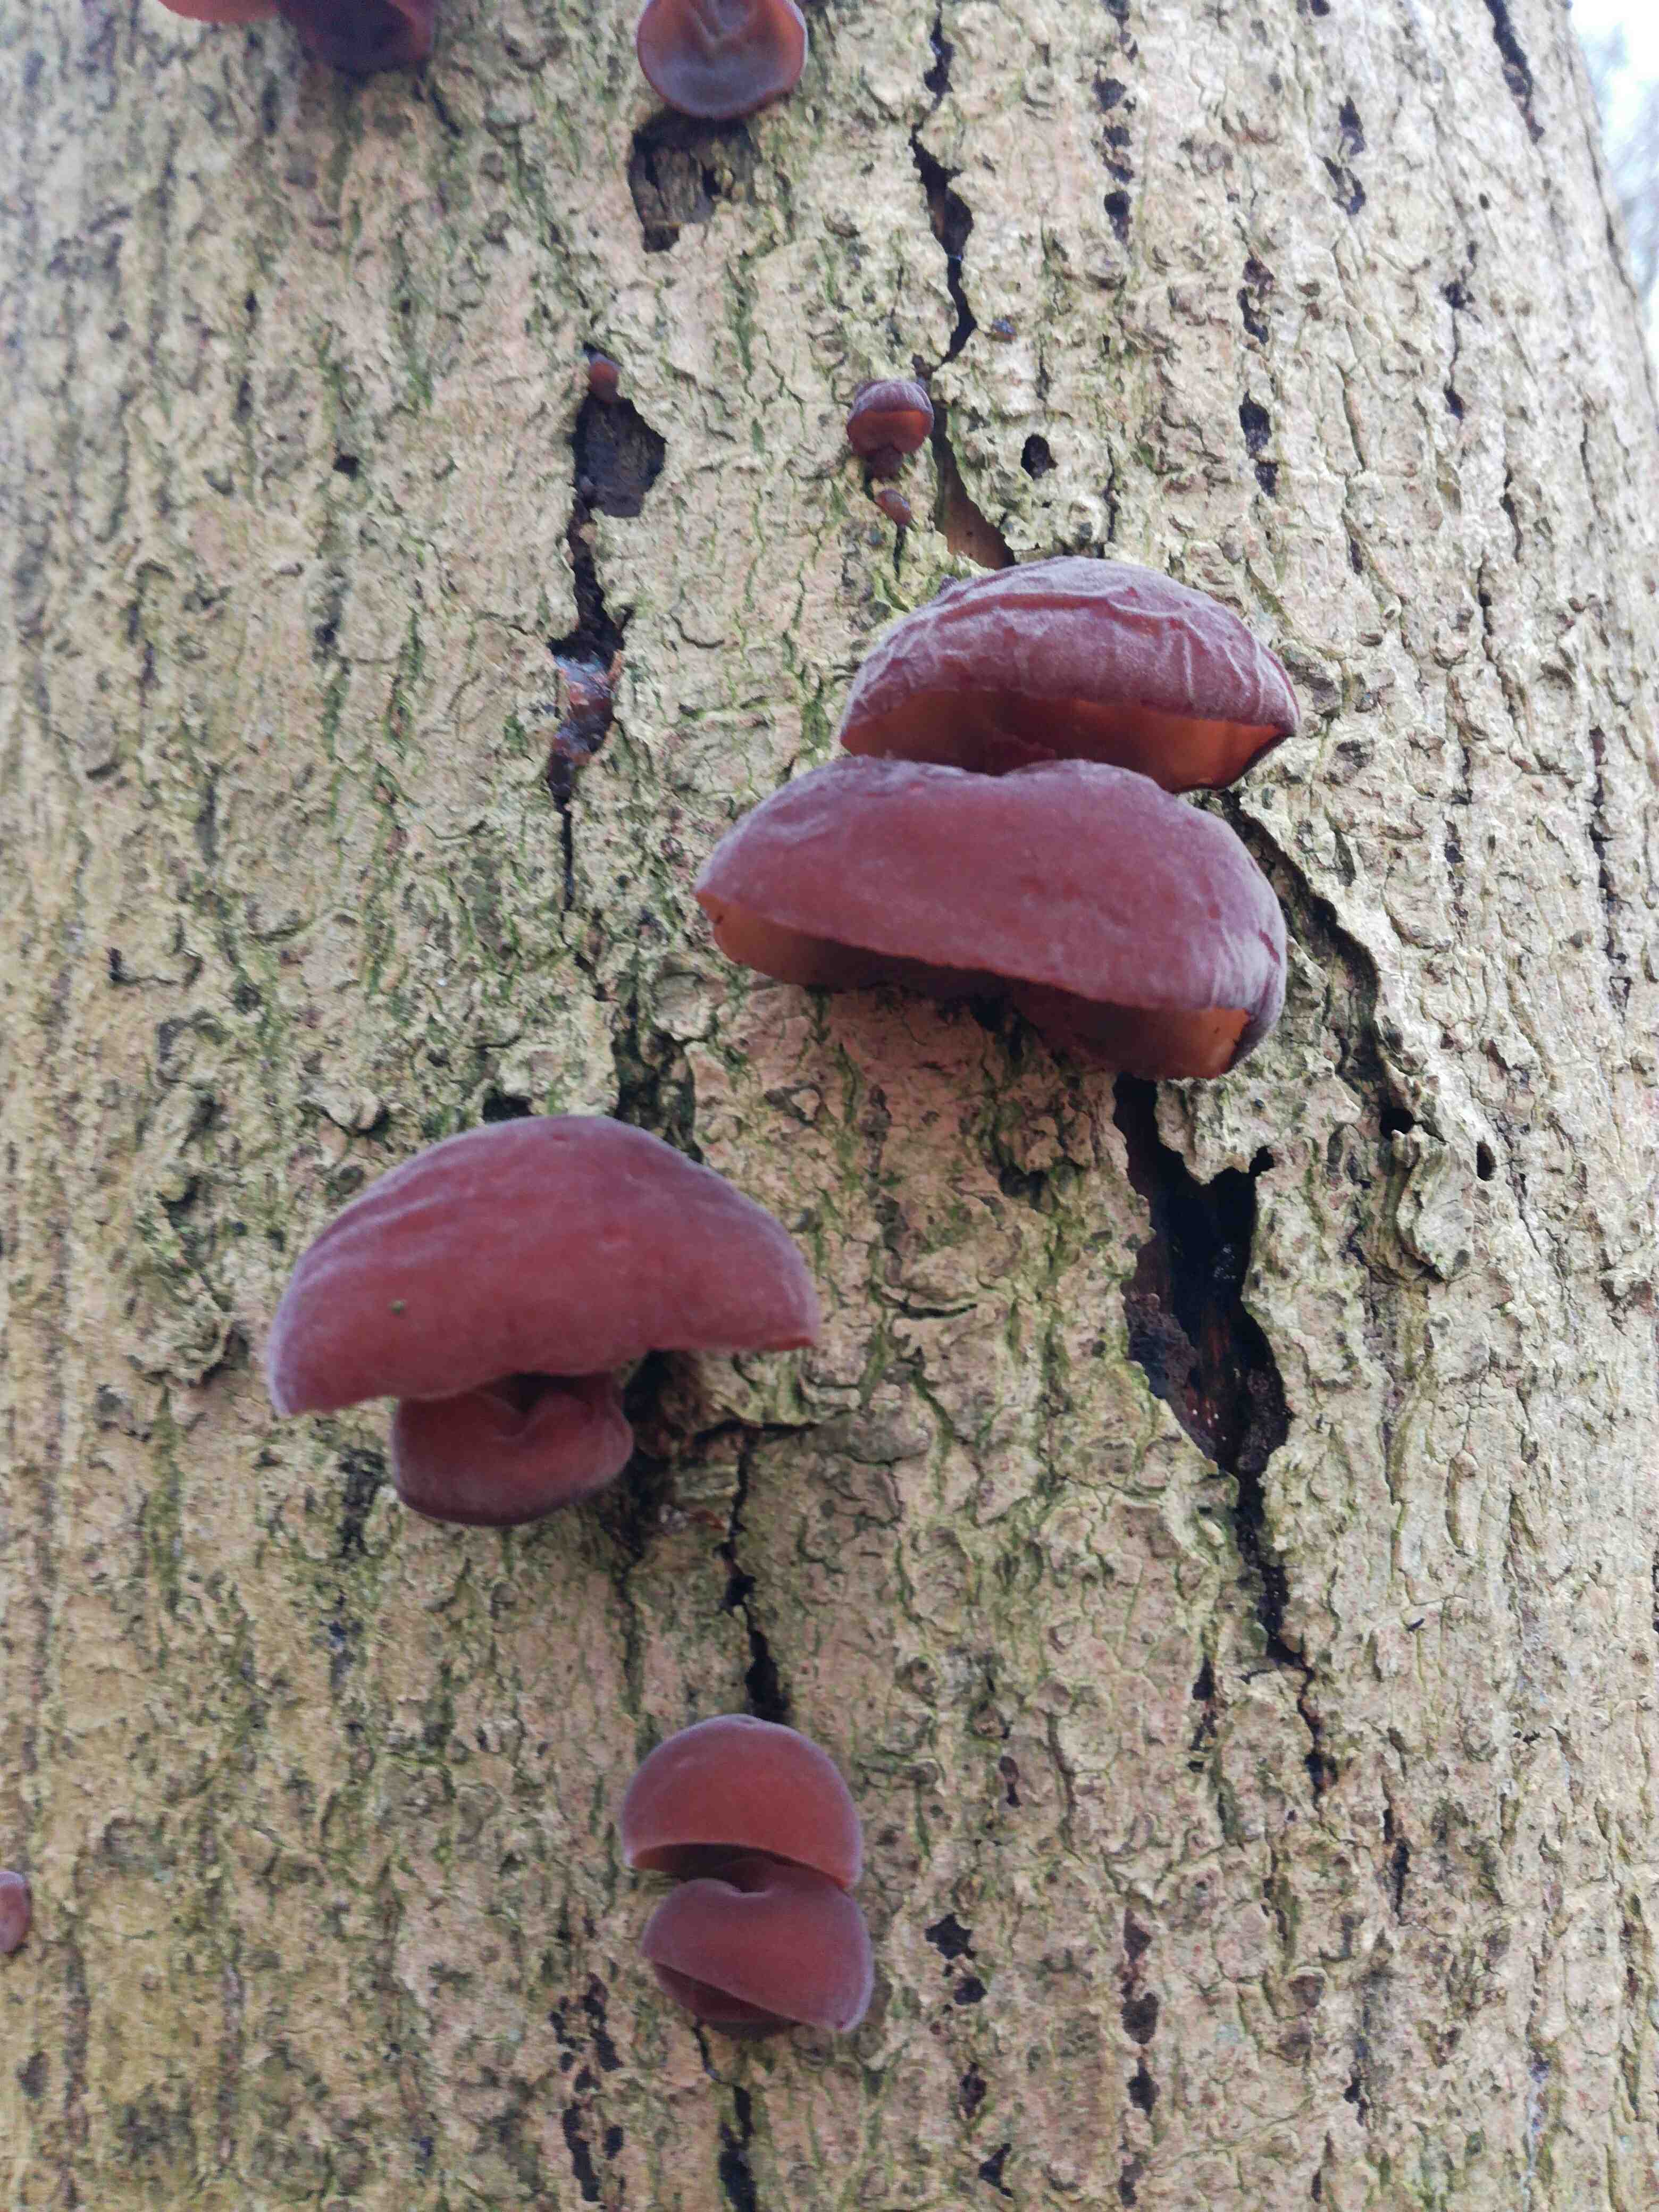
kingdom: Fungi
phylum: Basidiomycota
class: Agaricomycetes
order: Auriculariales
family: Auriculariaceae
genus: Auricularia
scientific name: Auricularia auricula-judae
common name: almindelig judasøre
